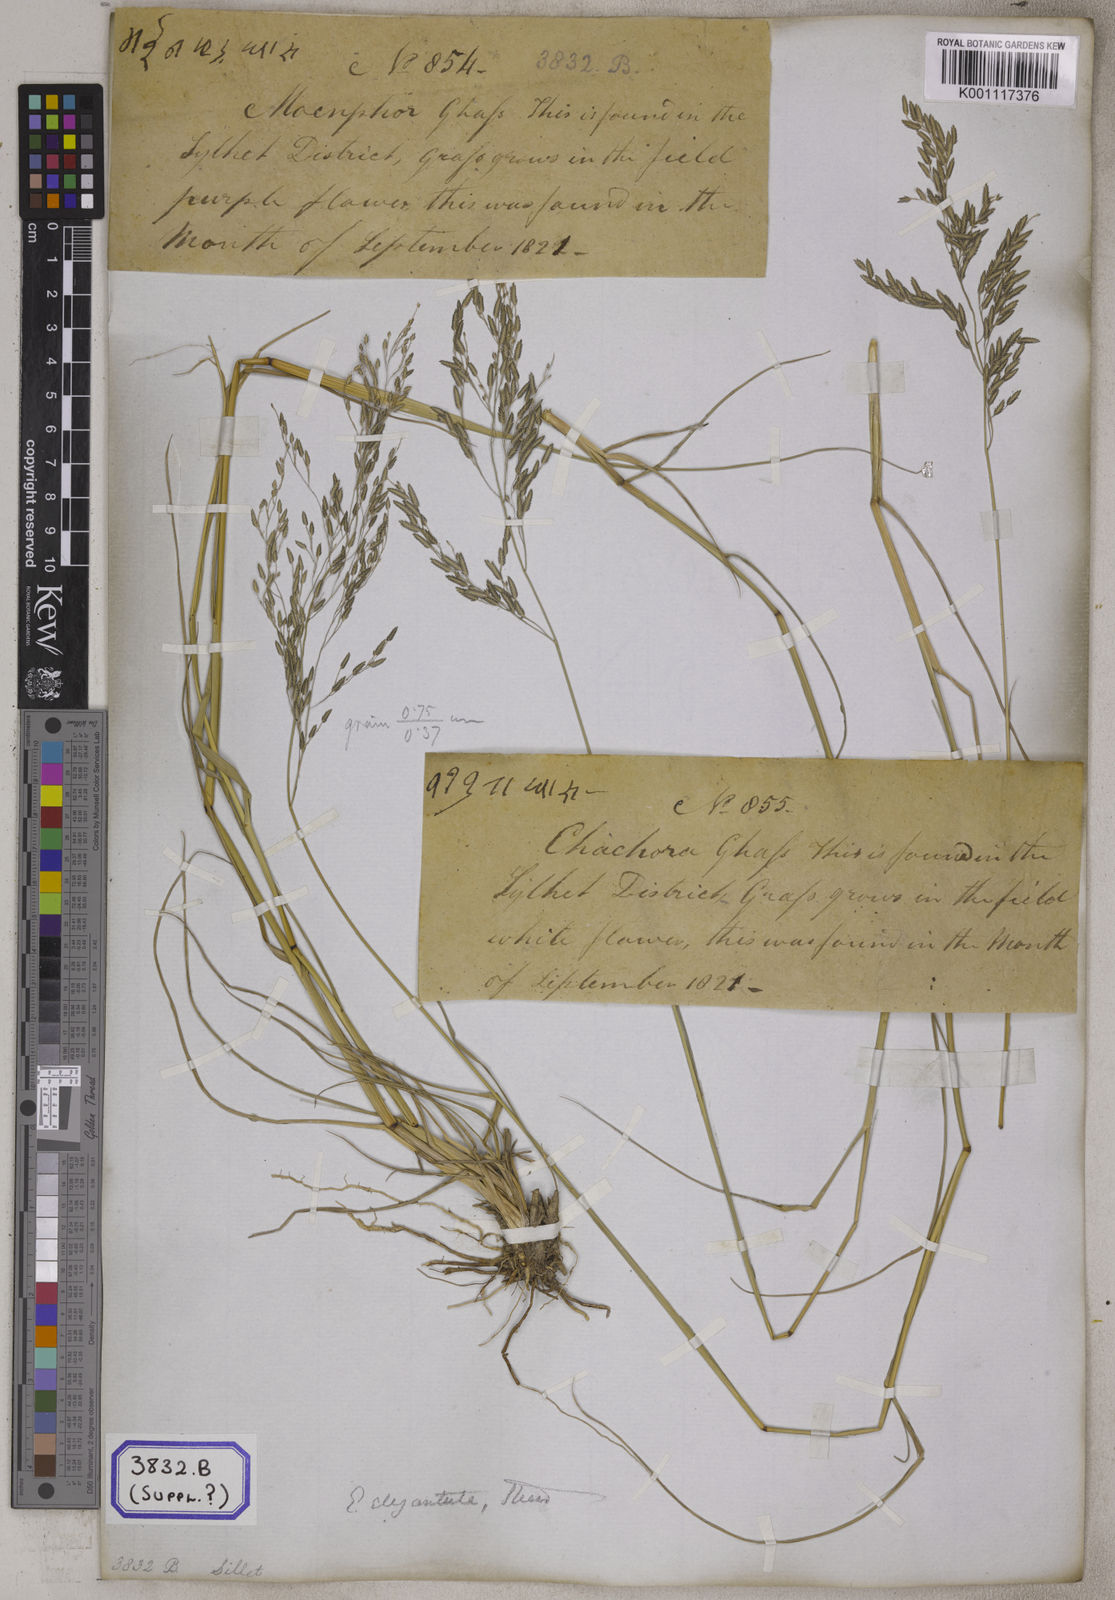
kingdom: Plantae
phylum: Tracheophyta
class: Liliopsida
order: Poales
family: Poaceae
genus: Eragrostis
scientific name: Eragrostis
